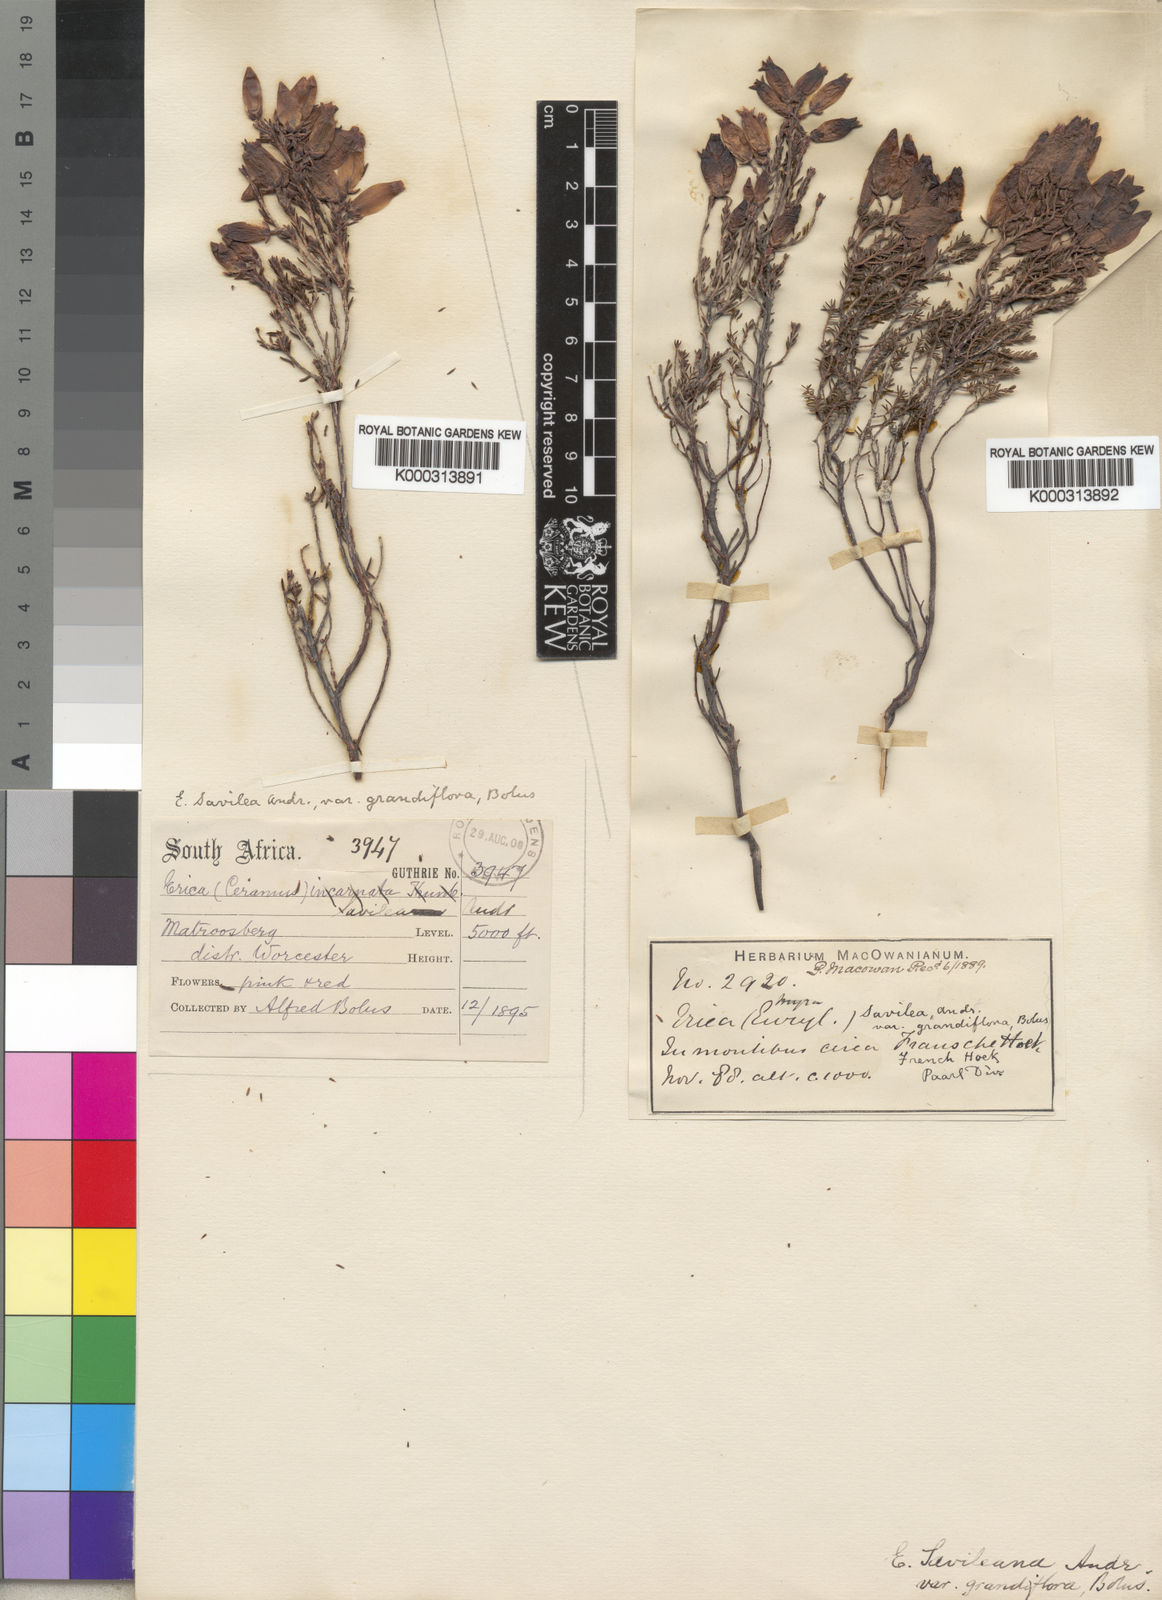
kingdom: Plantae
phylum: Tracheophyta
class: Magnoliopsida
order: Ericales
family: Ericaceae
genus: Erica
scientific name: Erica
